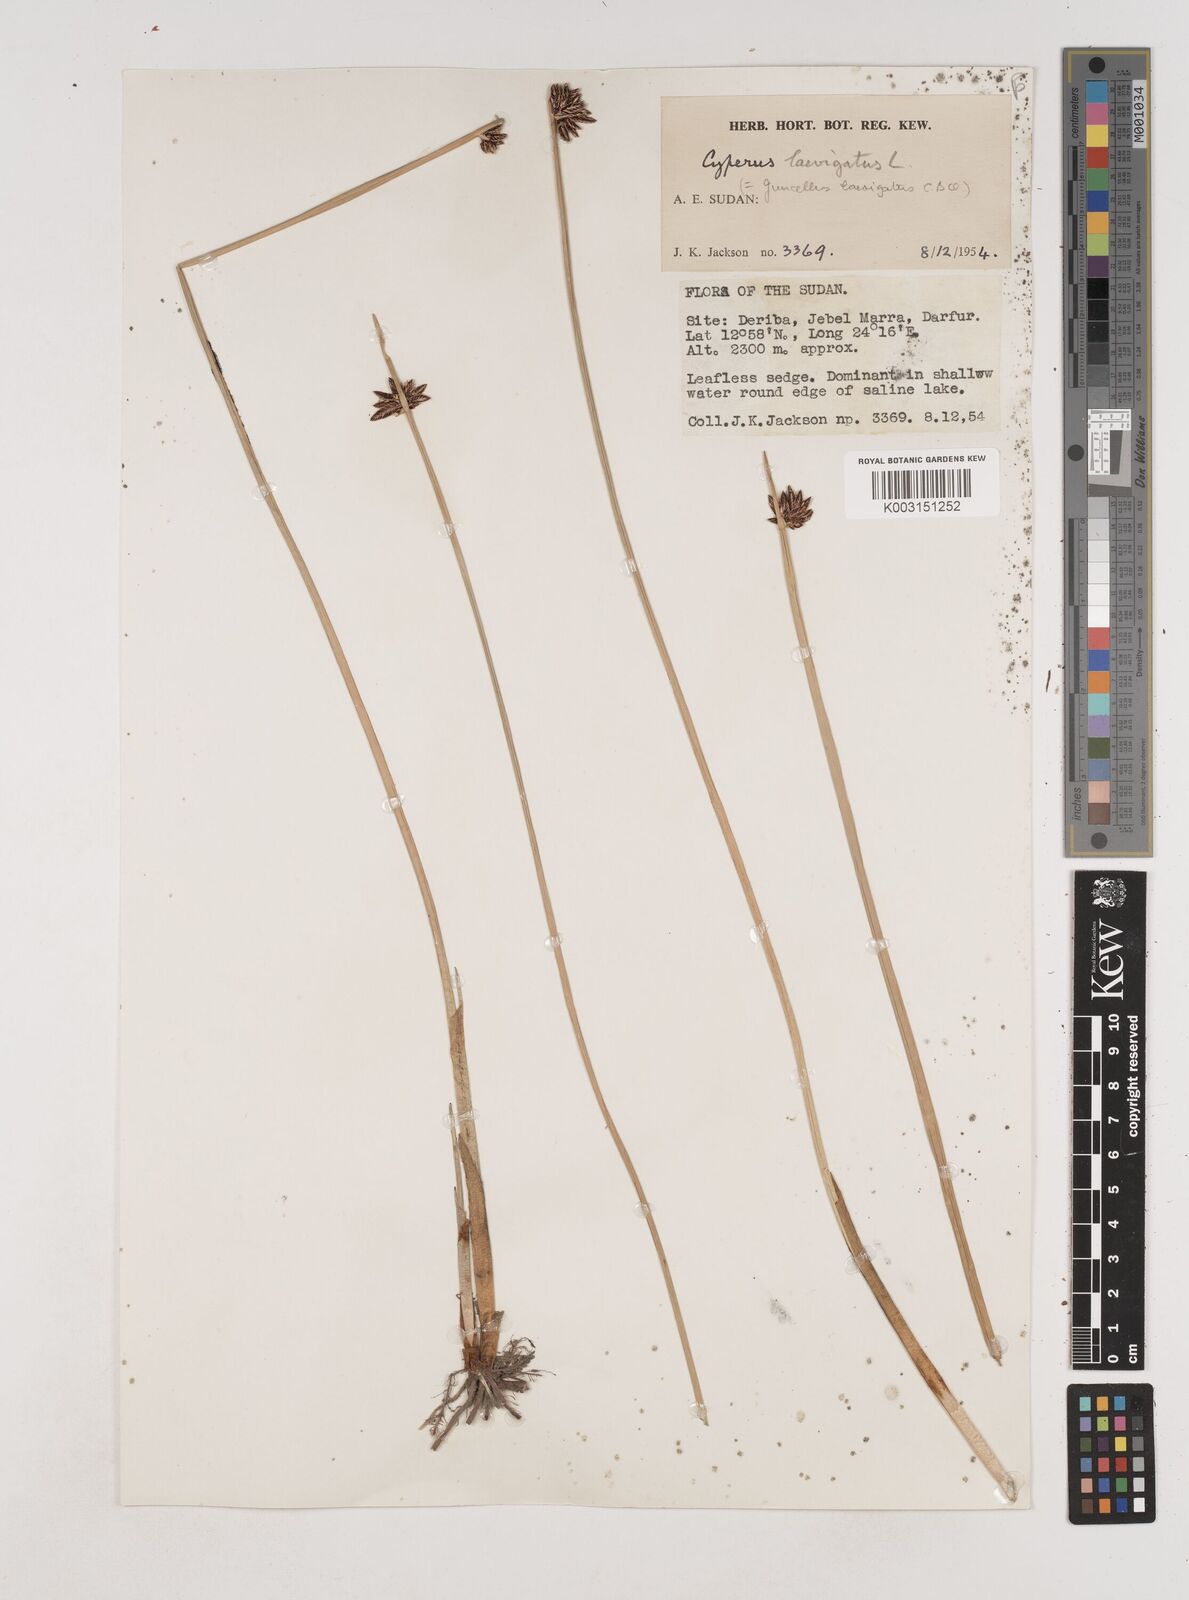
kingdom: Plantae
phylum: Tracheophyta
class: Liliopsida
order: Poales
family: Cyperaceae
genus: Cyperus
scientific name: Cyperus laevigatus
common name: Smooth flat sedge
